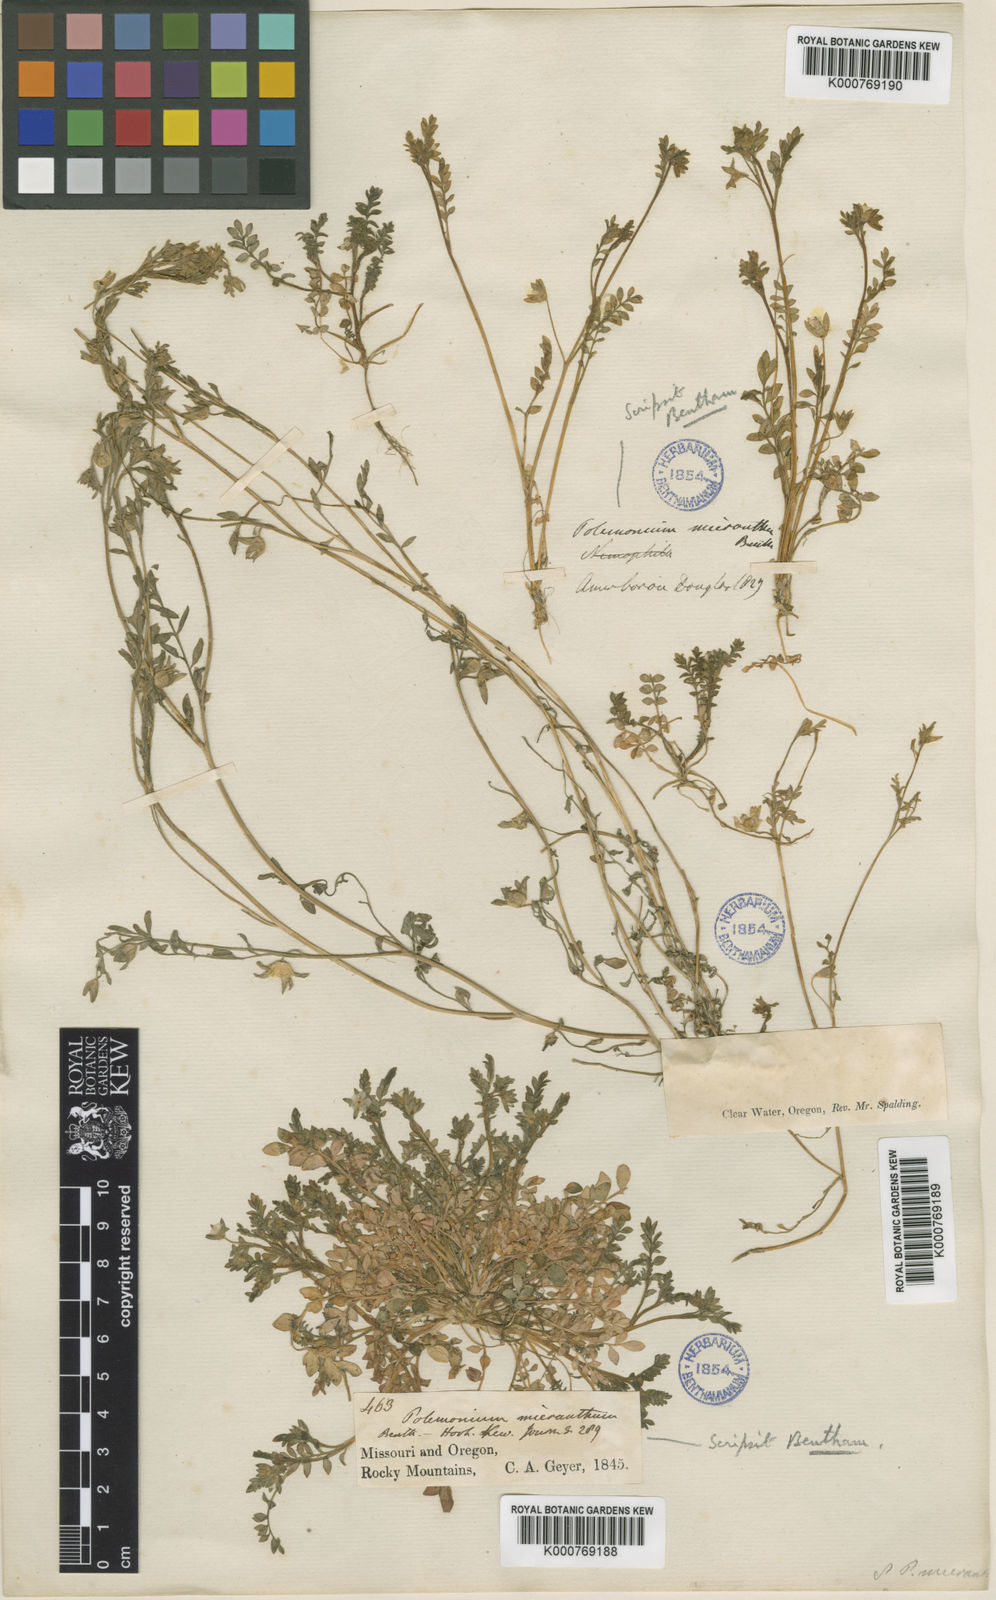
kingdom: Plantae
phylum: Tracheophyta
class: Magnoliopsida
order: Ericales
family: Polemoniaceae
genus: Polemonium
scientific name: Polemonium micranthum
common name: Annual jacob's-ladder
